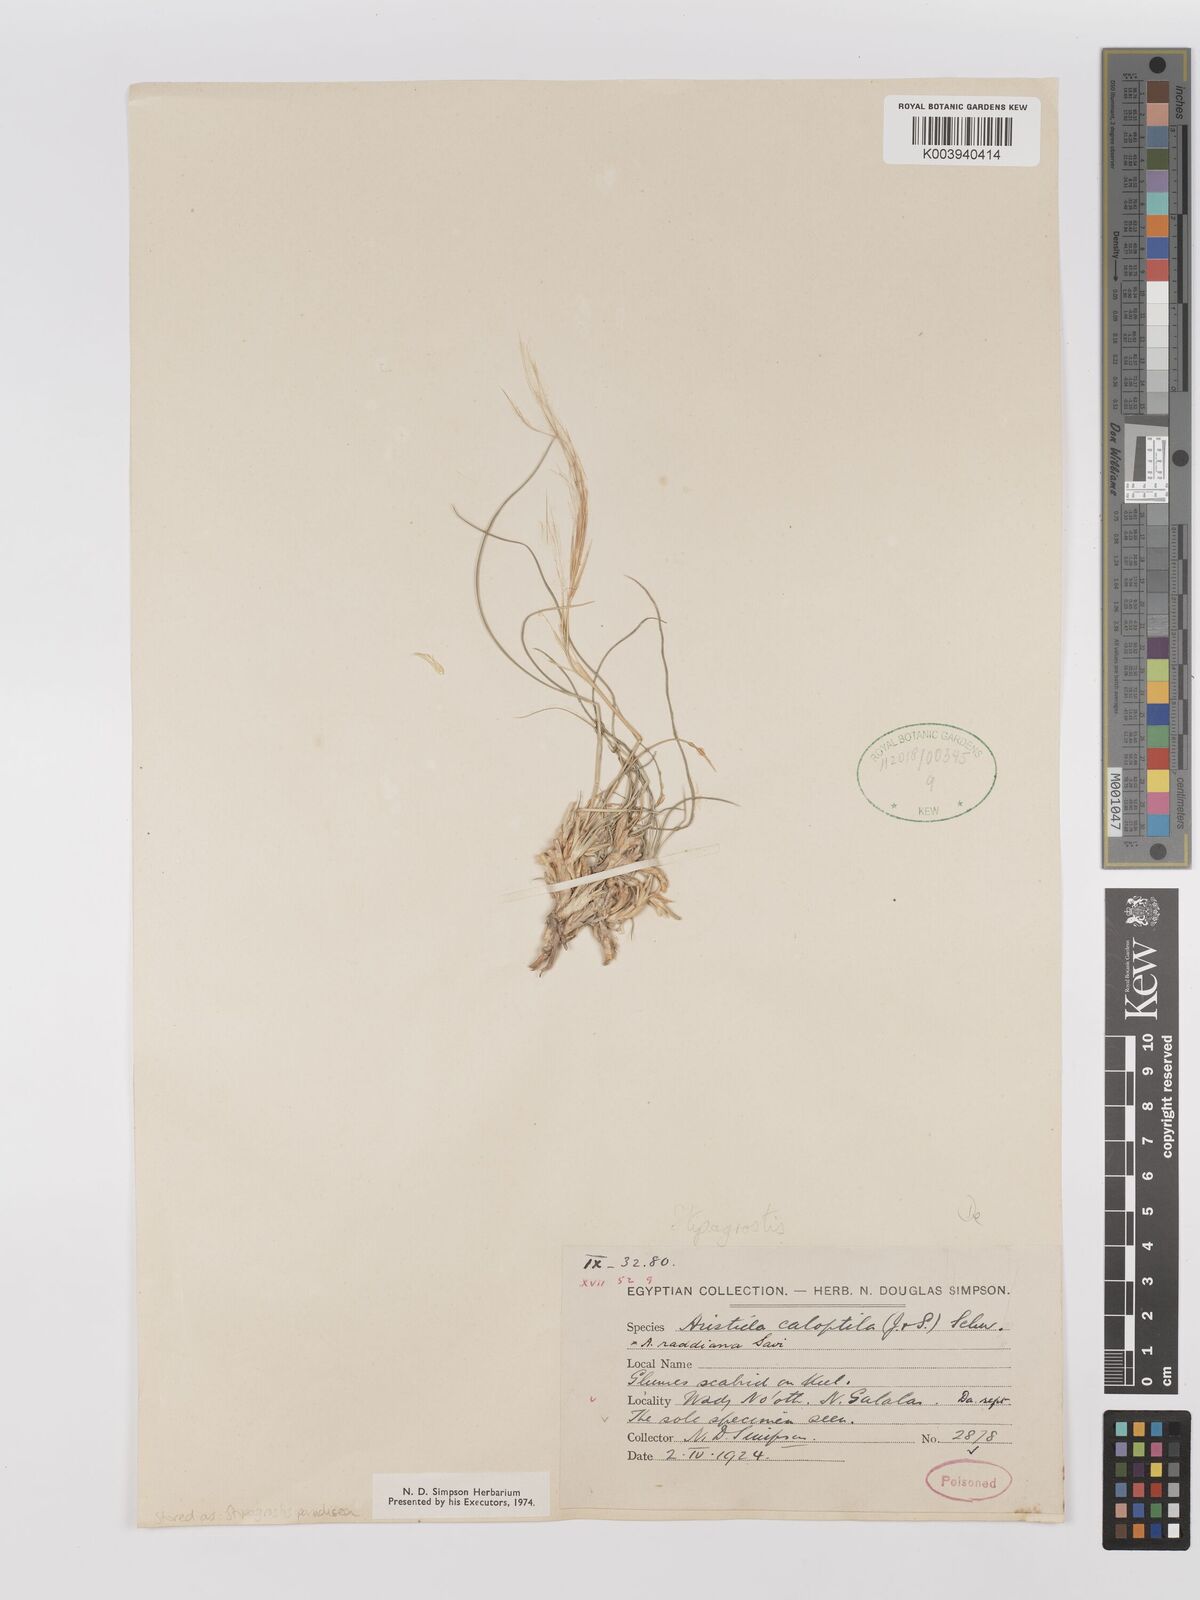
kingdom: Plantae
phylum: Tracheophyta
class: Liliopsida
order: Poales
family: Poaceae
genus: Stipagrostis
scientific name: Stipagrostis paradisea
